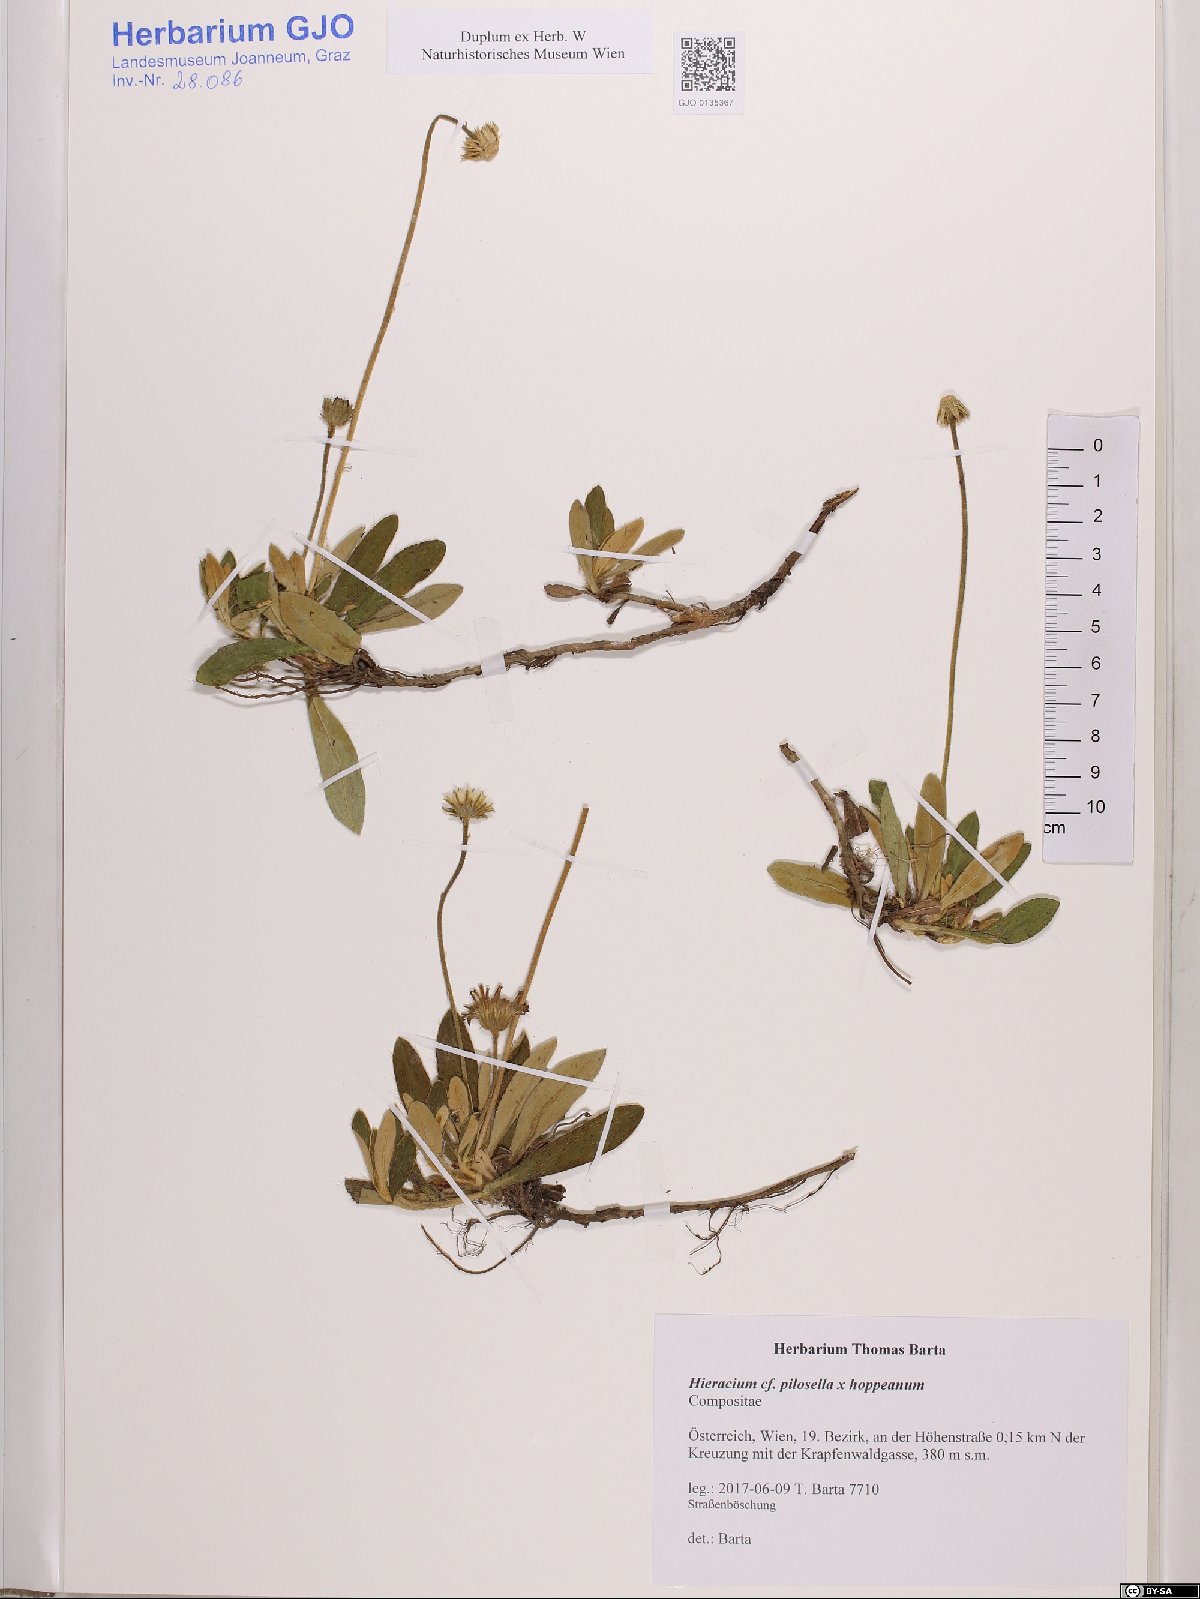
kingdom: Plantae
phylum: Tracheophyta
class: Magnoliopsida
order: Asterales
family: Asteraceae
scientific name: Asteraceae
